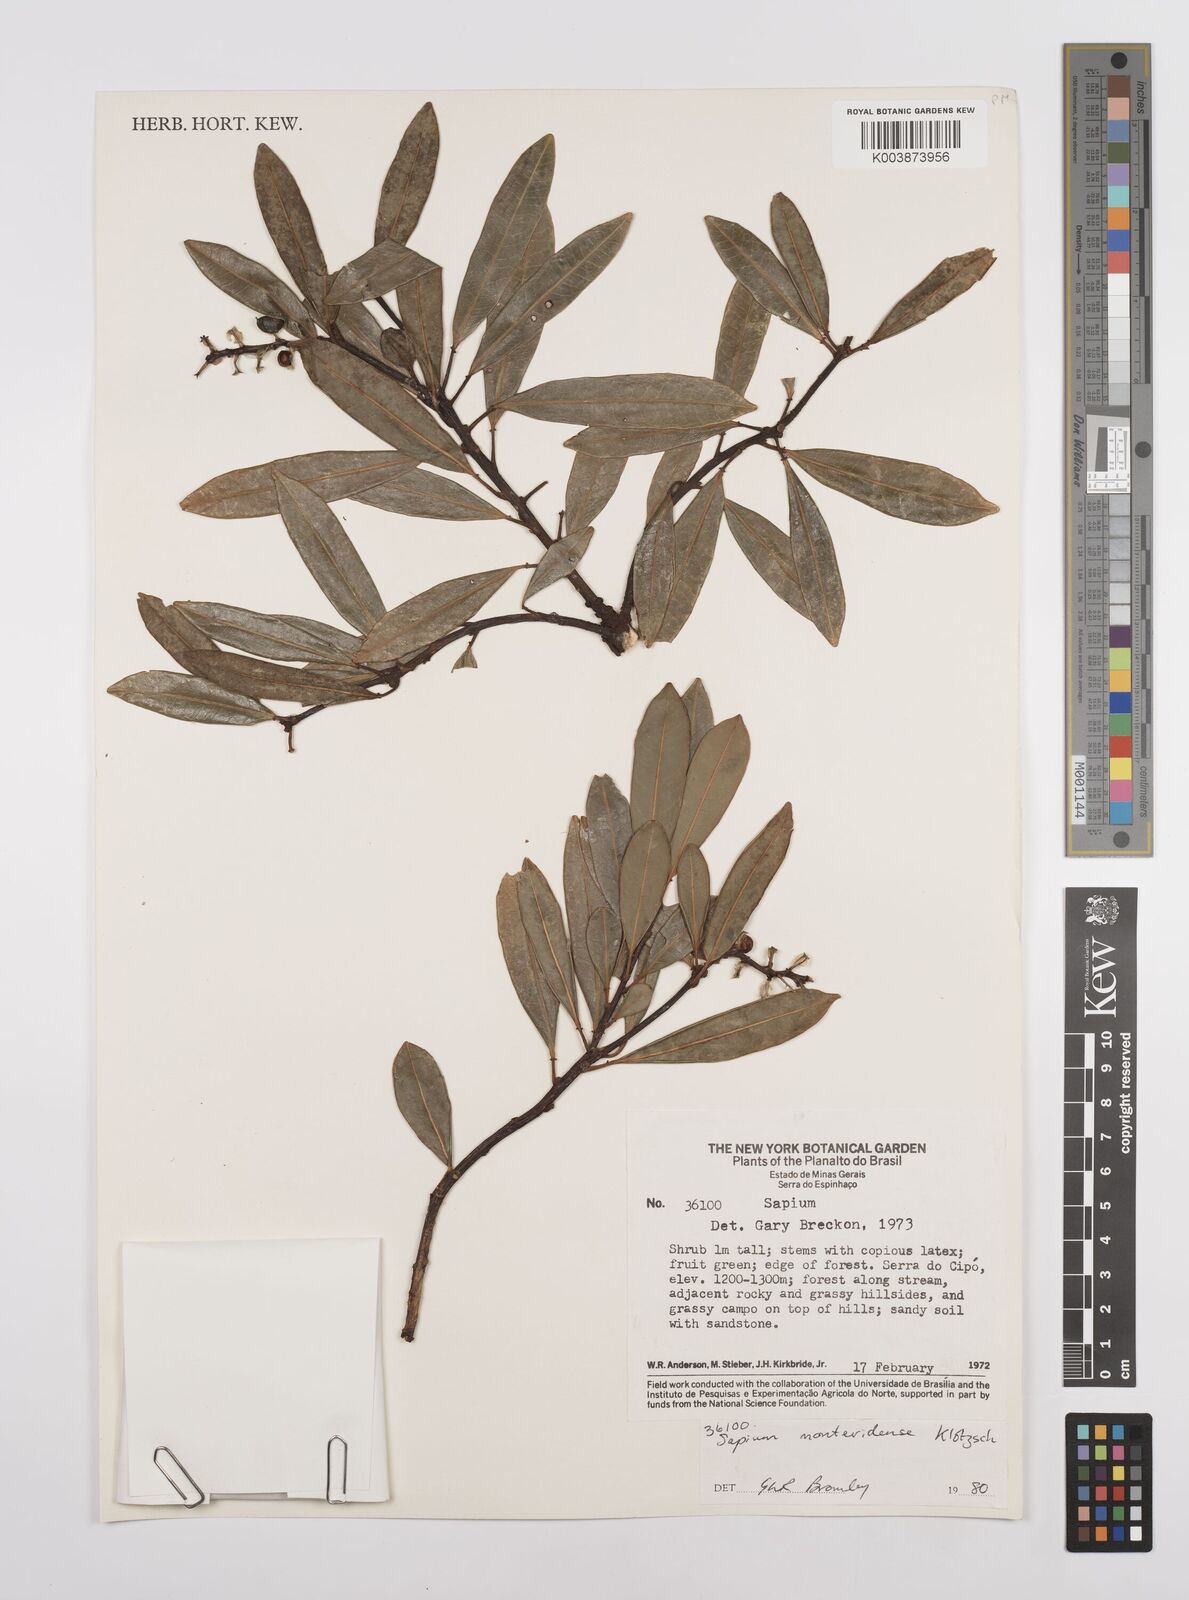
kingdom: Plantae
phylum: Tracheophyta
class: Magnoliopsida
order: Malpighiales
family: Euphorbiaceae
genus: Sapium
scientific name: Sapium glandulosum
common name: Milktree
